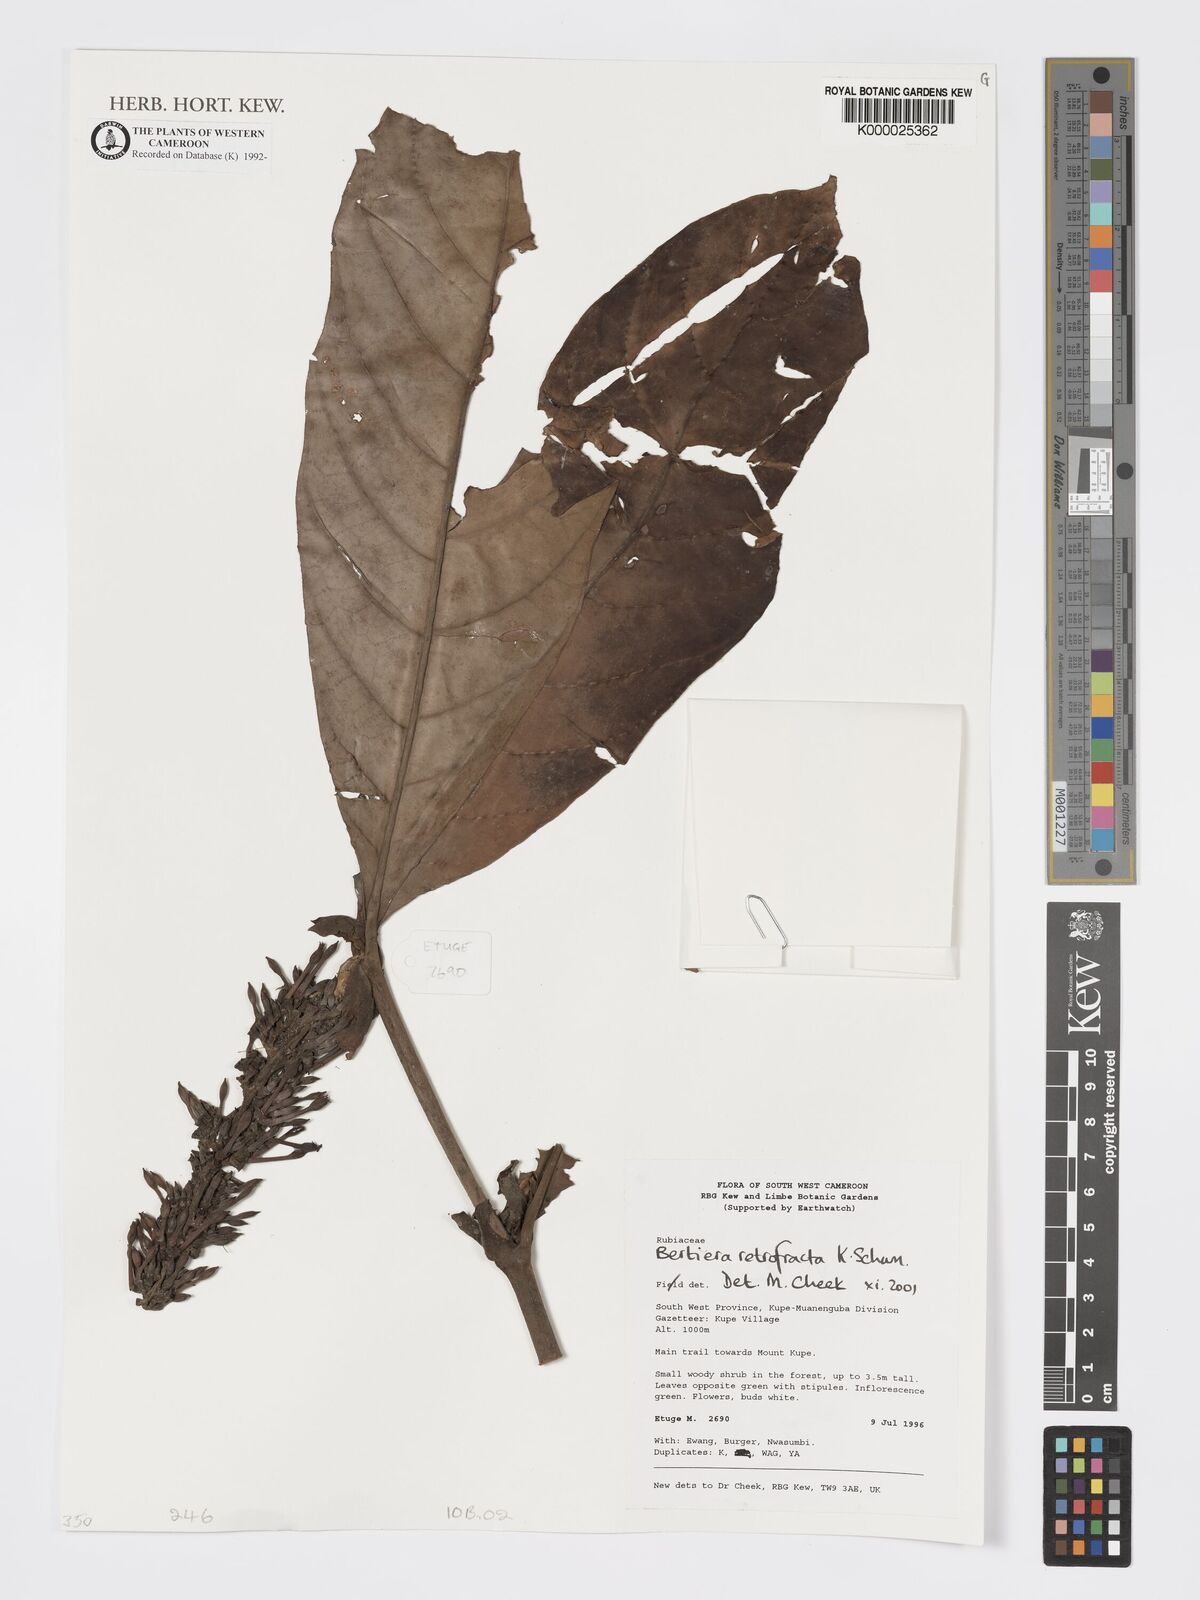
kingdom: Plantae
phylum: Tracheophyta
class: Magnoliopsida
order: Gentianales
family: Rubiaceae
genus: Bertiera
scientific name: Bertiera retrofracta
